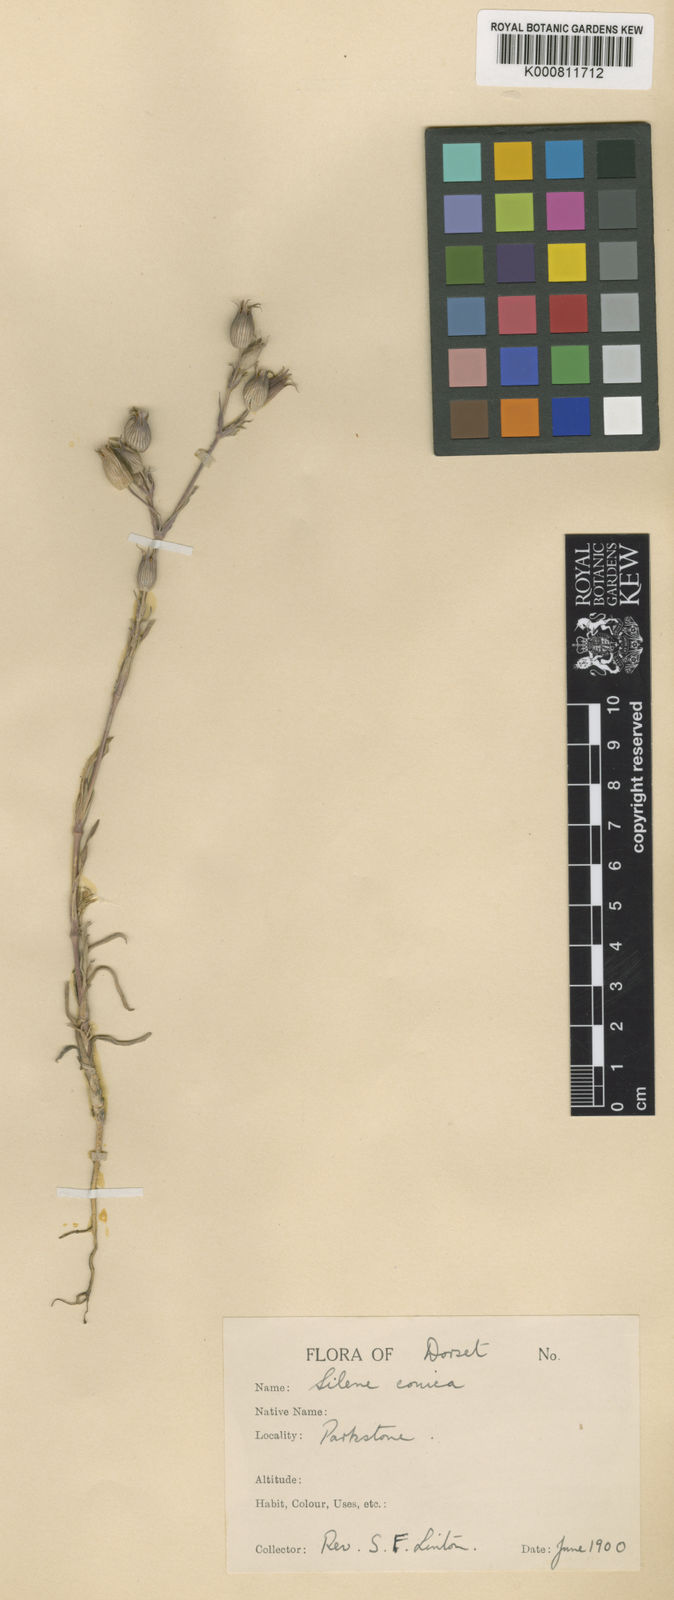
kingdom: Plantae
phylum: Tracheophyta
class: Magnoliopsida
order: Caryophyllales
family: Caryophyllaceae
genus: Silene
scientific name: Silene conica
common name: Sand catchfly
